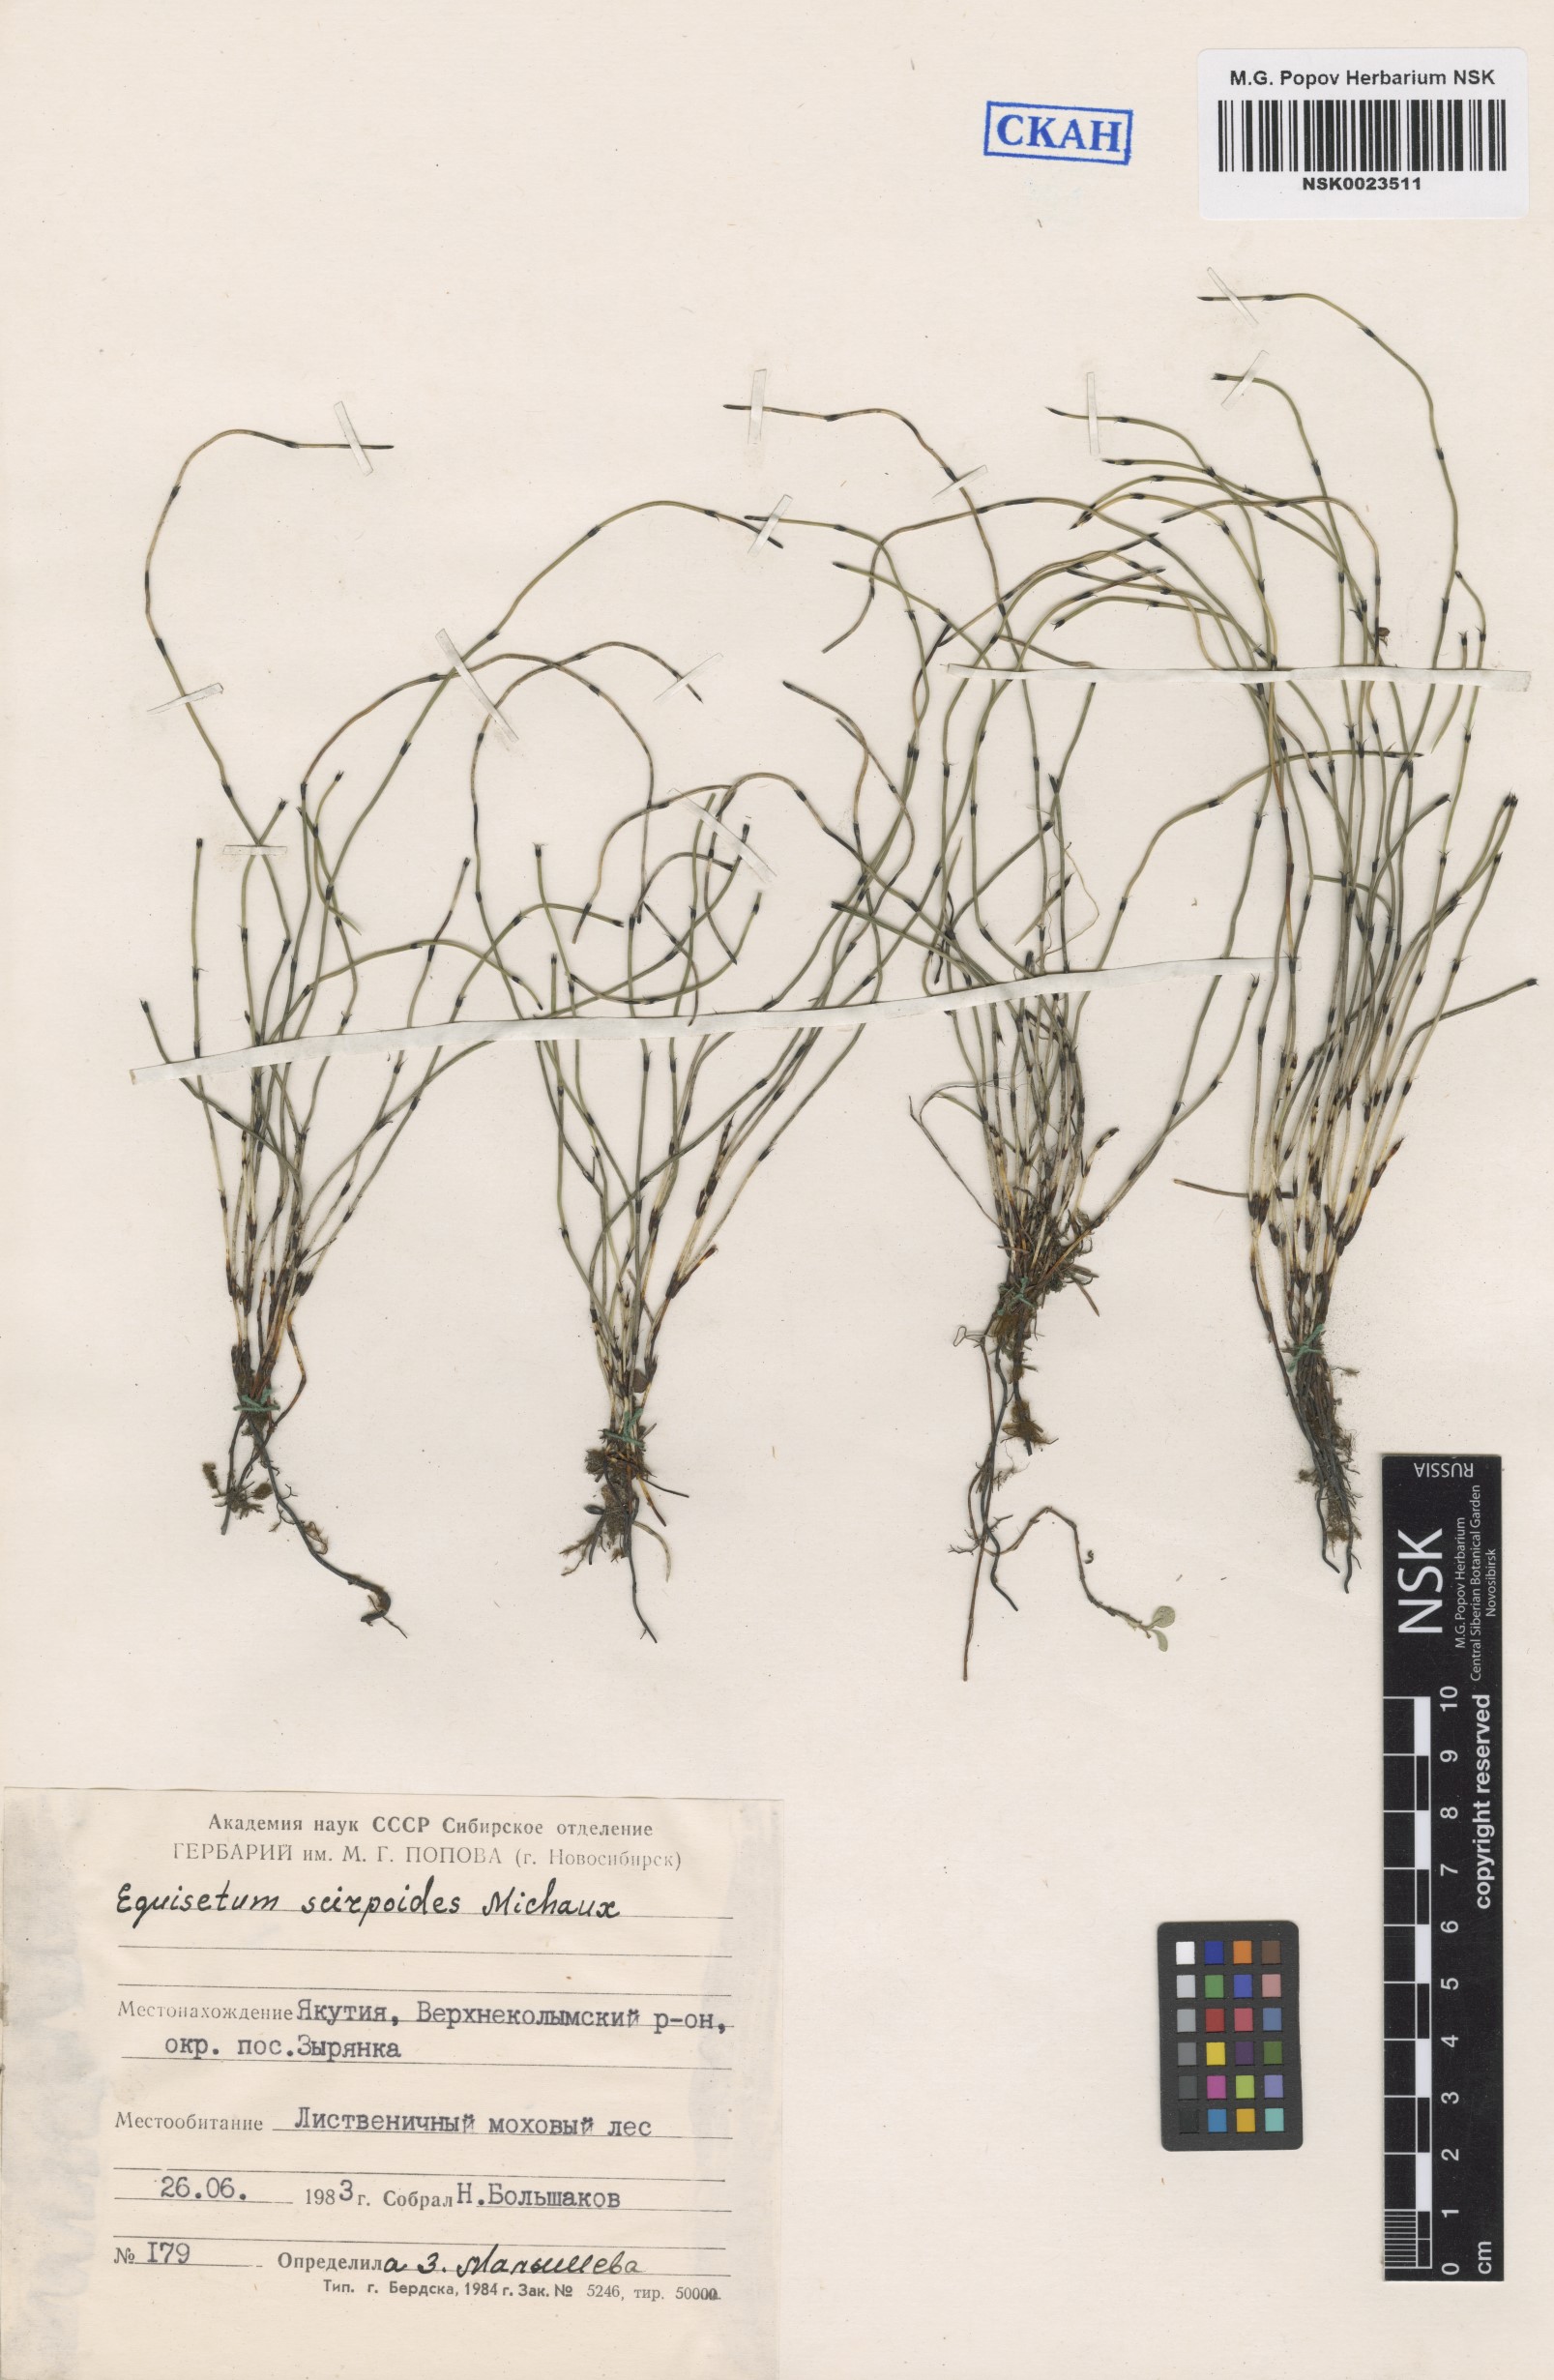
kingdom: Plantae
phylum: Tracheophyta
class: Polypodiopsida
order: Equisetales
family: Equisetaceae
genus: Equisetum
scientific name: Equisetum scirpoides
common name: Delicate horsetail
